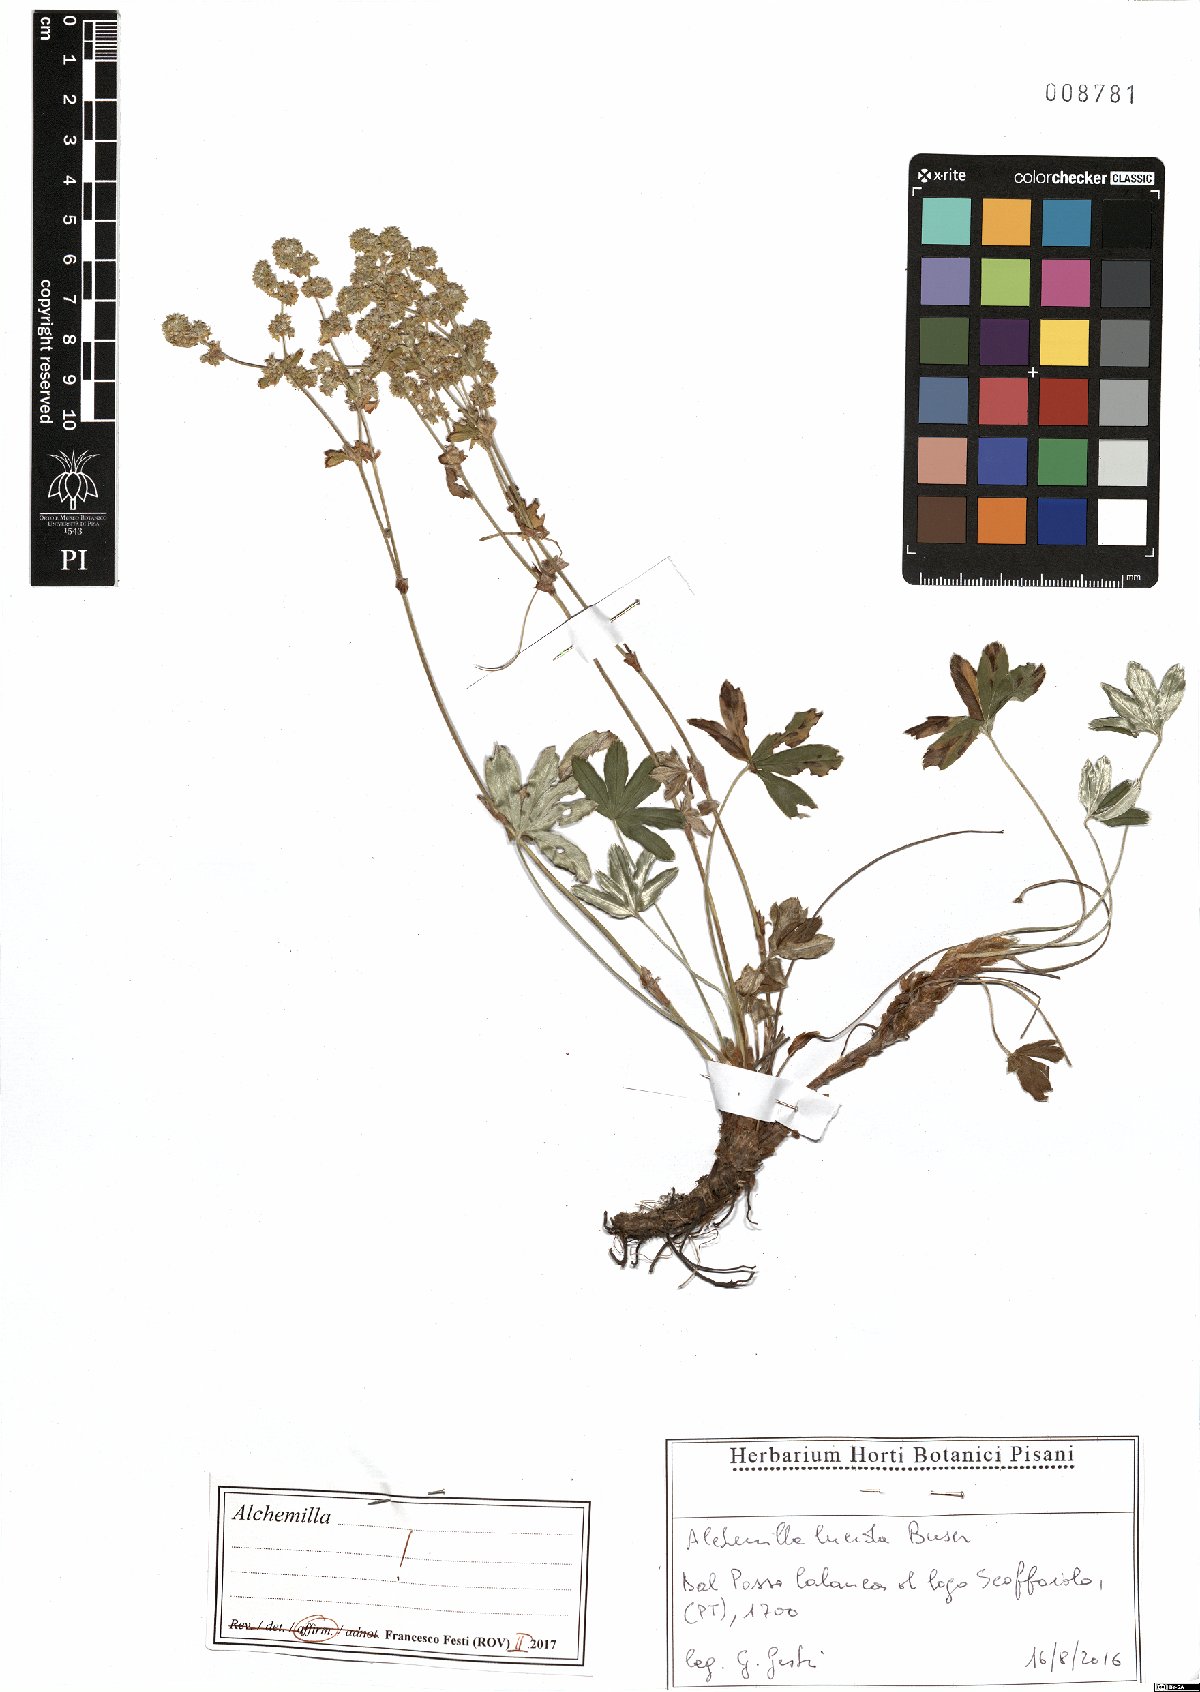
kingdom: Plantae
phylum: Tracheophyta
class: Magnoliopsida
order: Rosales
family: Rosaceae
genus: Alchemilla
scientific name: Alchemilla lucida
